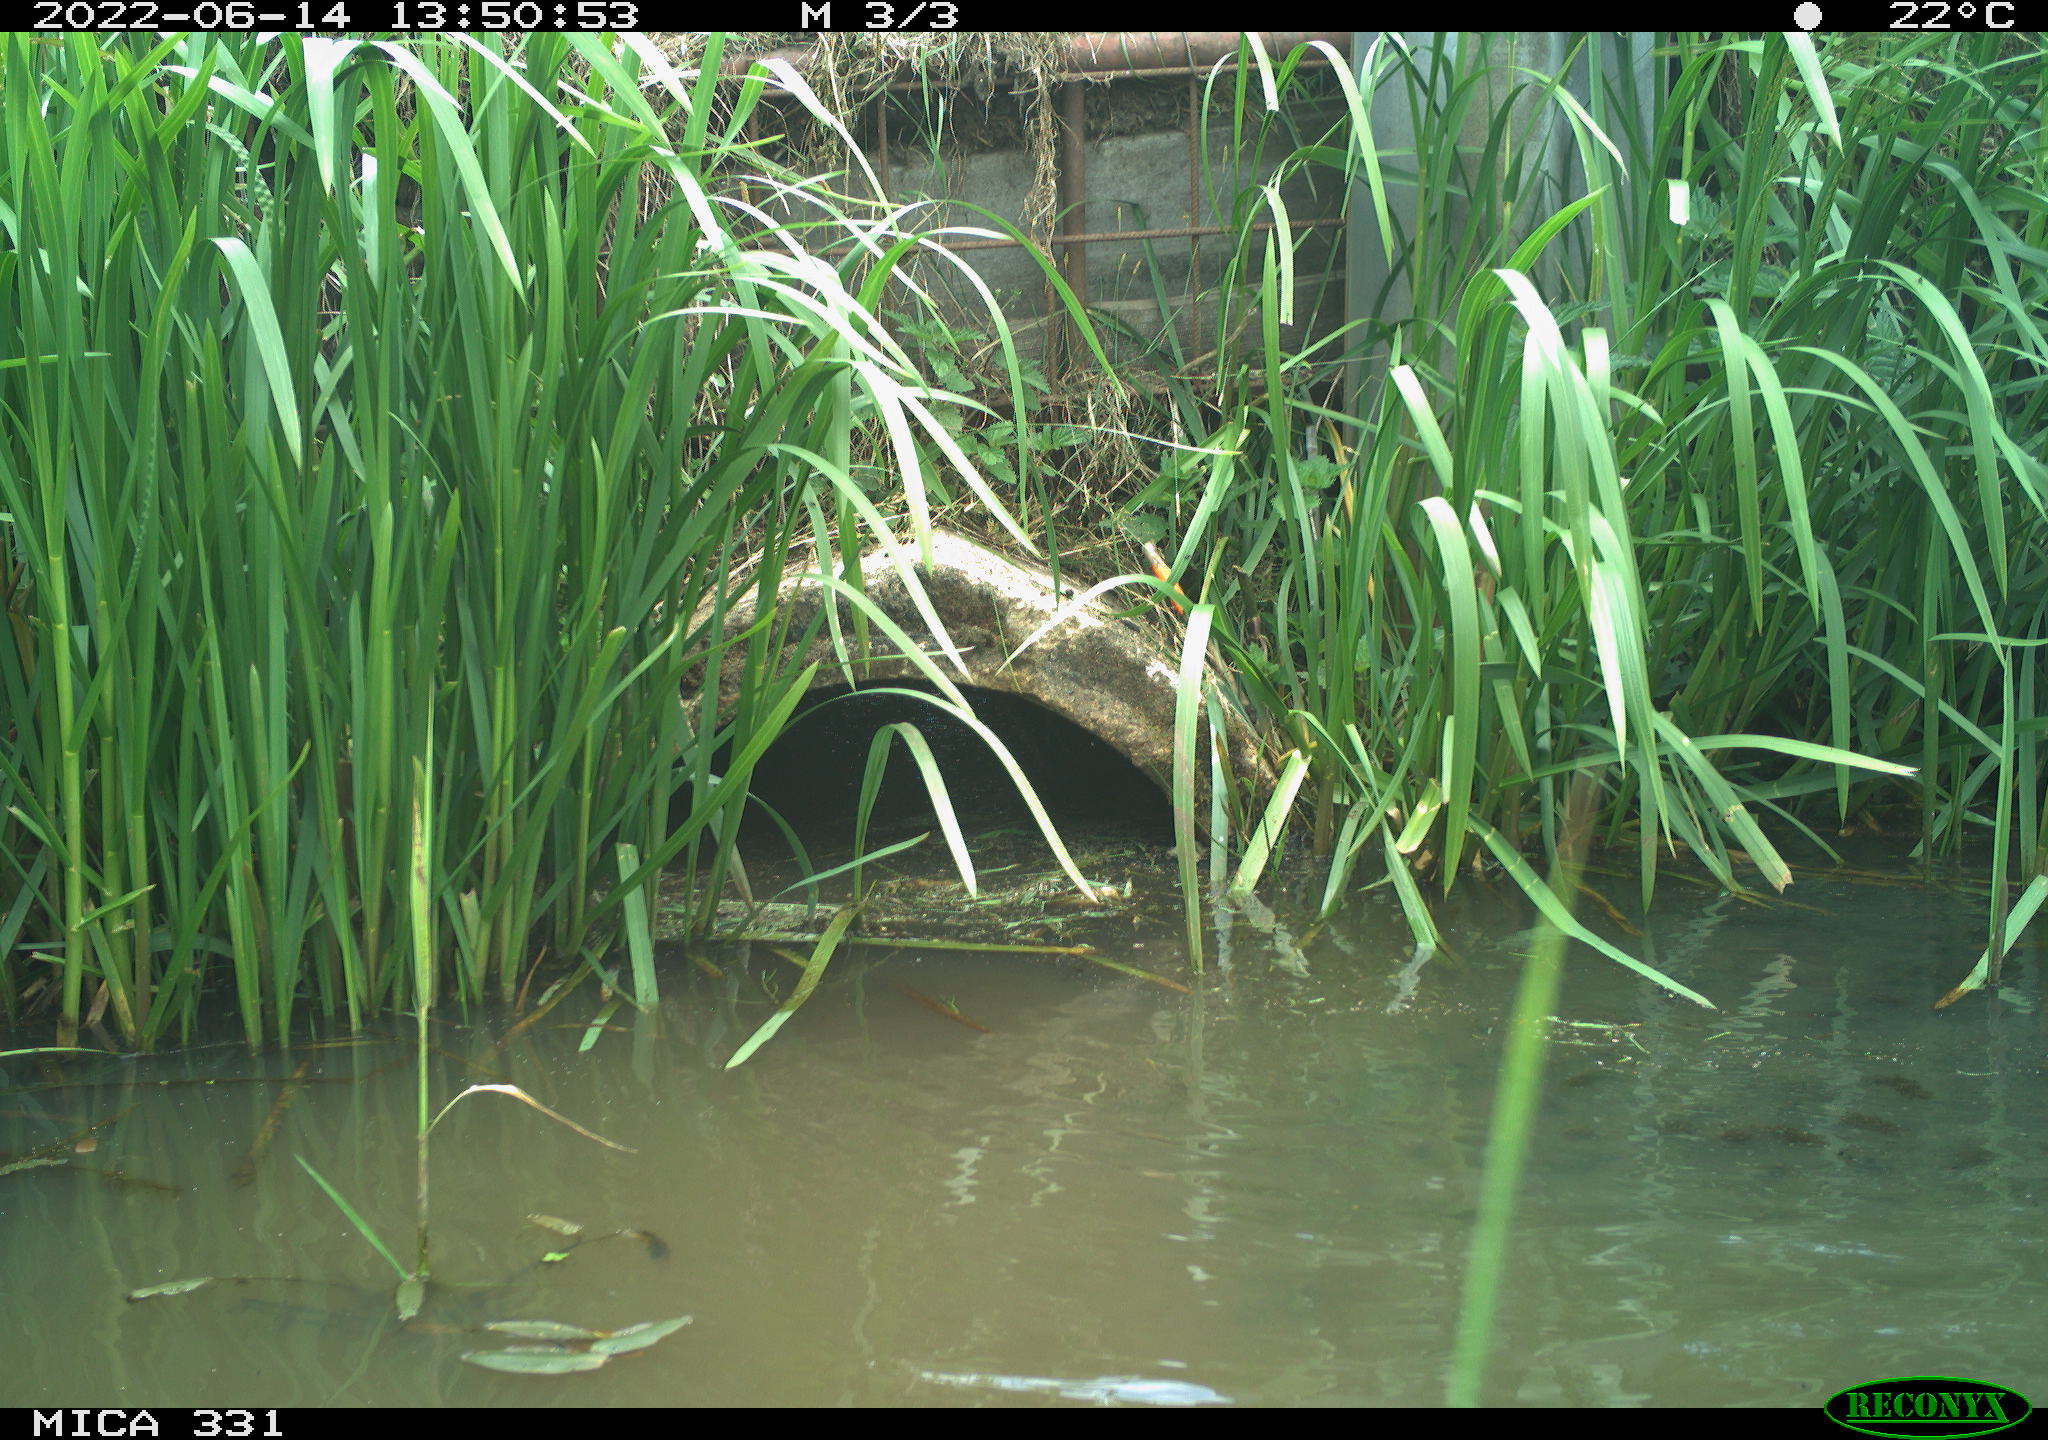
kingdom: Animalia
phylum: Chordata
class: Aves
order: Anseriformes
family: Anatidae
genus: Anas
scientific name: Anas platyrhynchos
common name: Mallard
